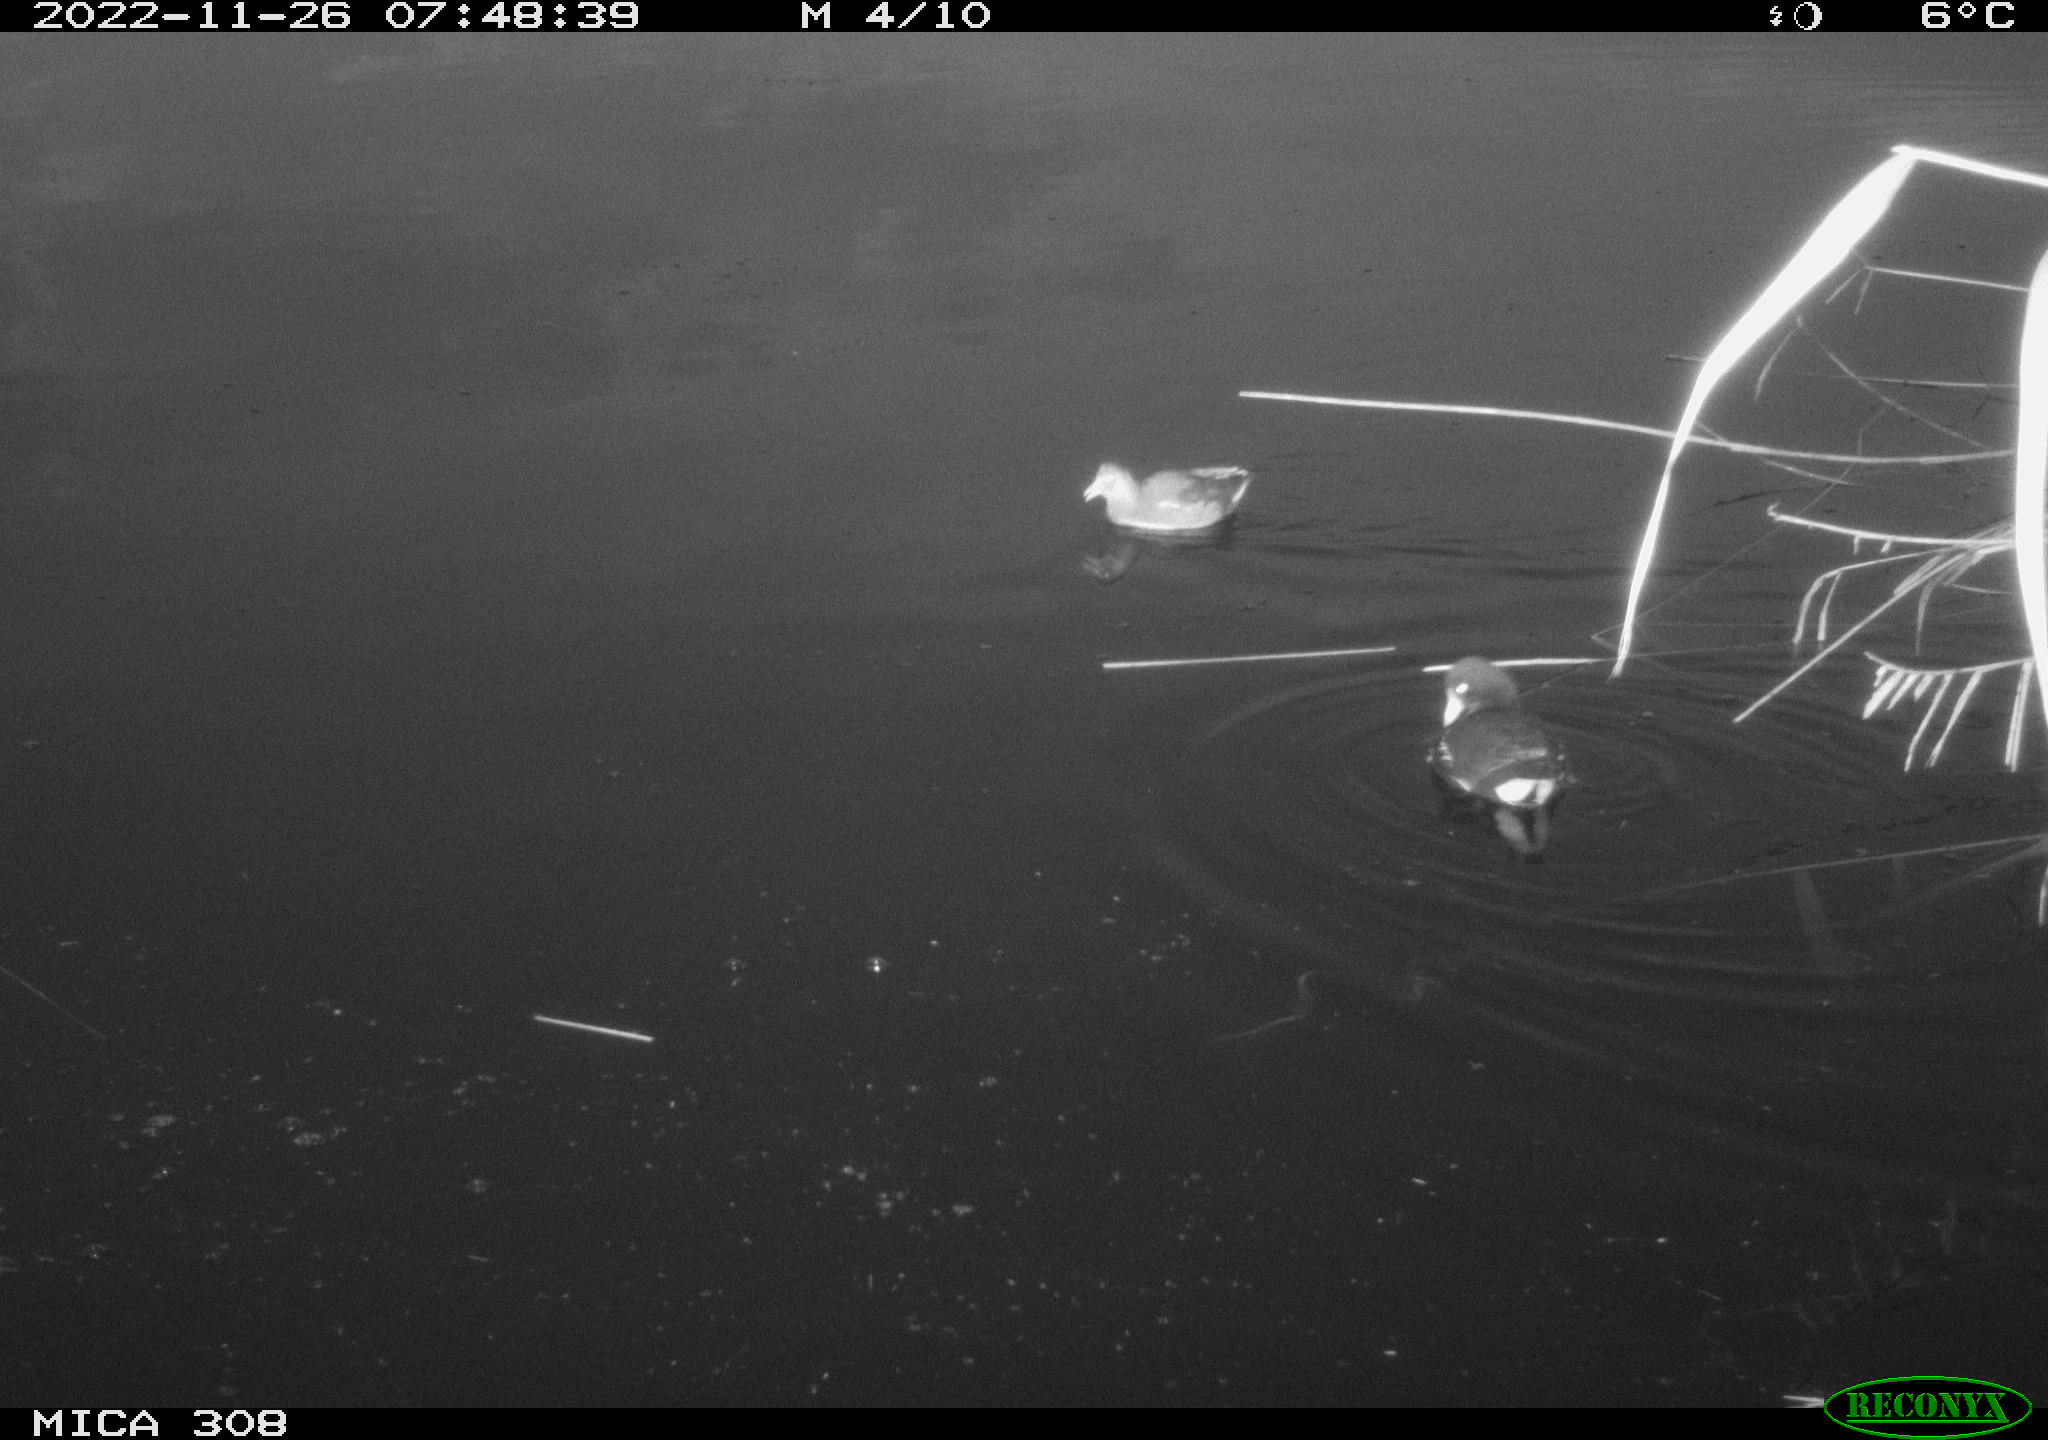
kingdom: Animalia
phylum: Chordata
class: Aves
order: Gruiformes
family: Rallidae
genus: Gallinula
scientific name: Gallinula chloropus
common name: Common moorhen
